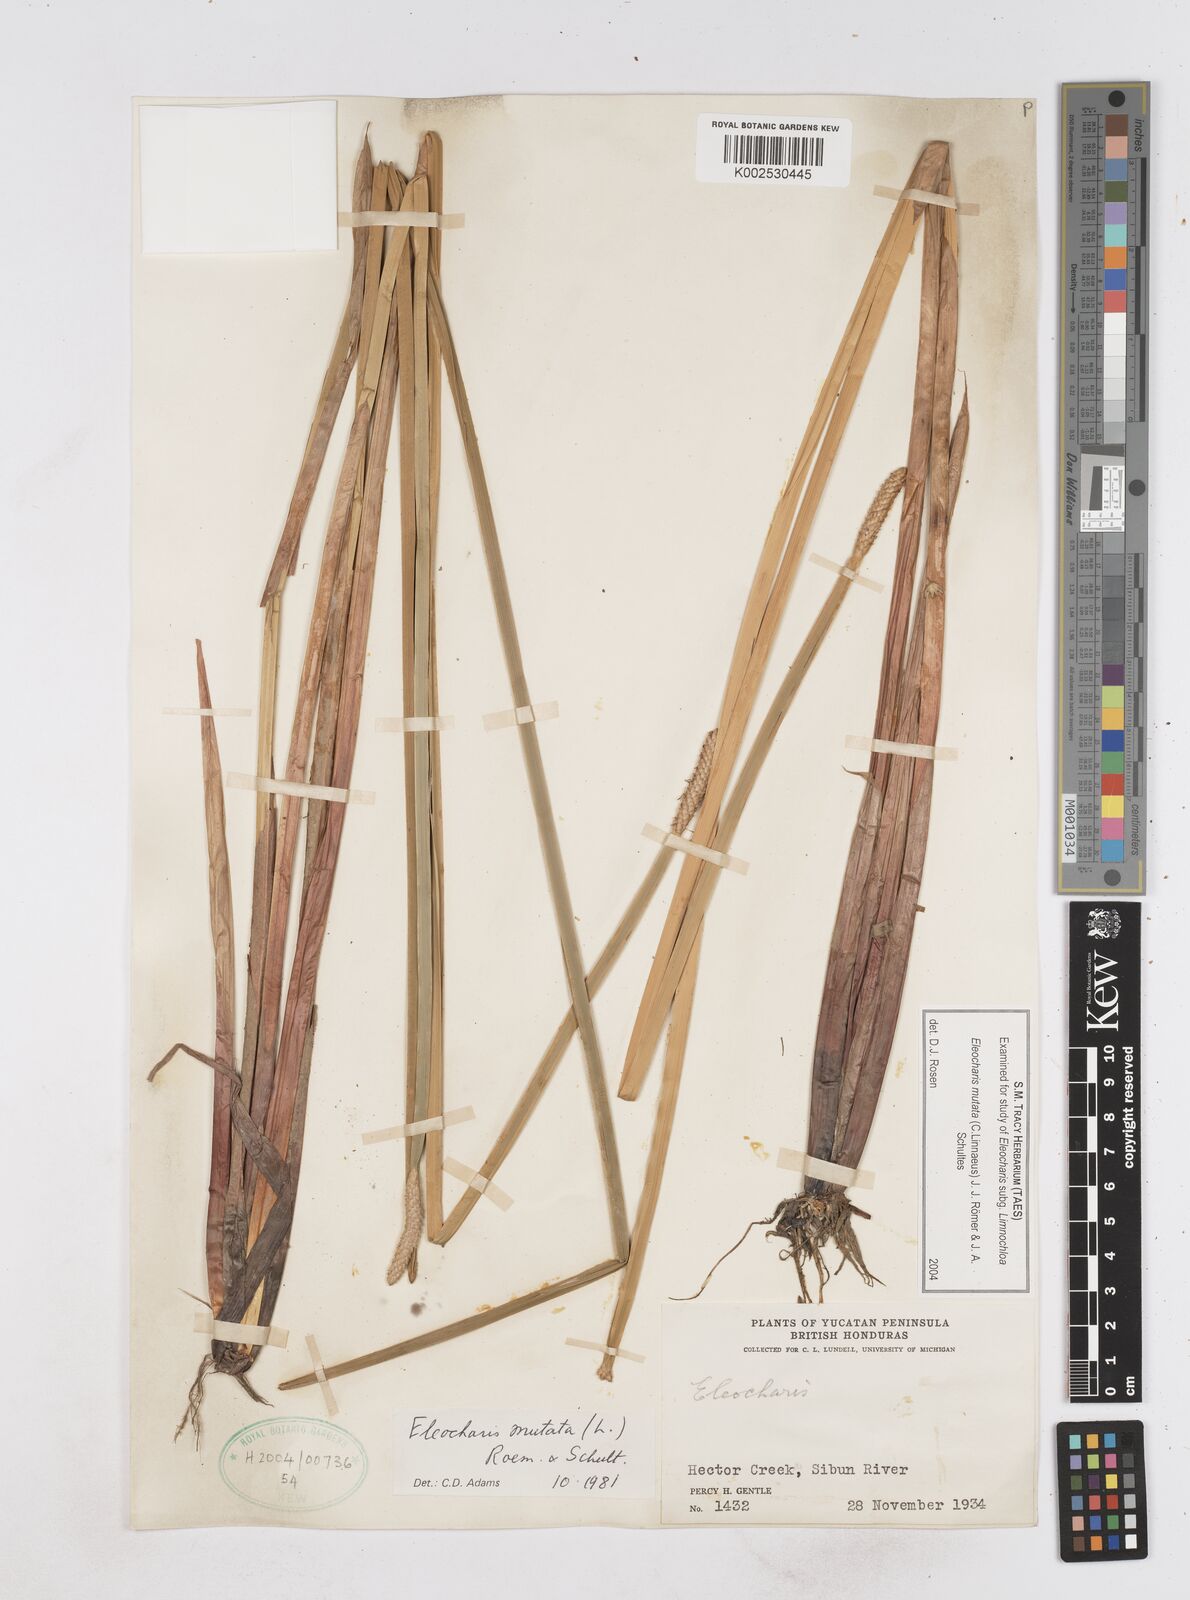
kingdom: Plantae
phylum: Tracheophyta
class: Liliopsida
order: Poales
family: Cyperaceae
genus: Eleocharis
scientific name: Eleocharis mutata
